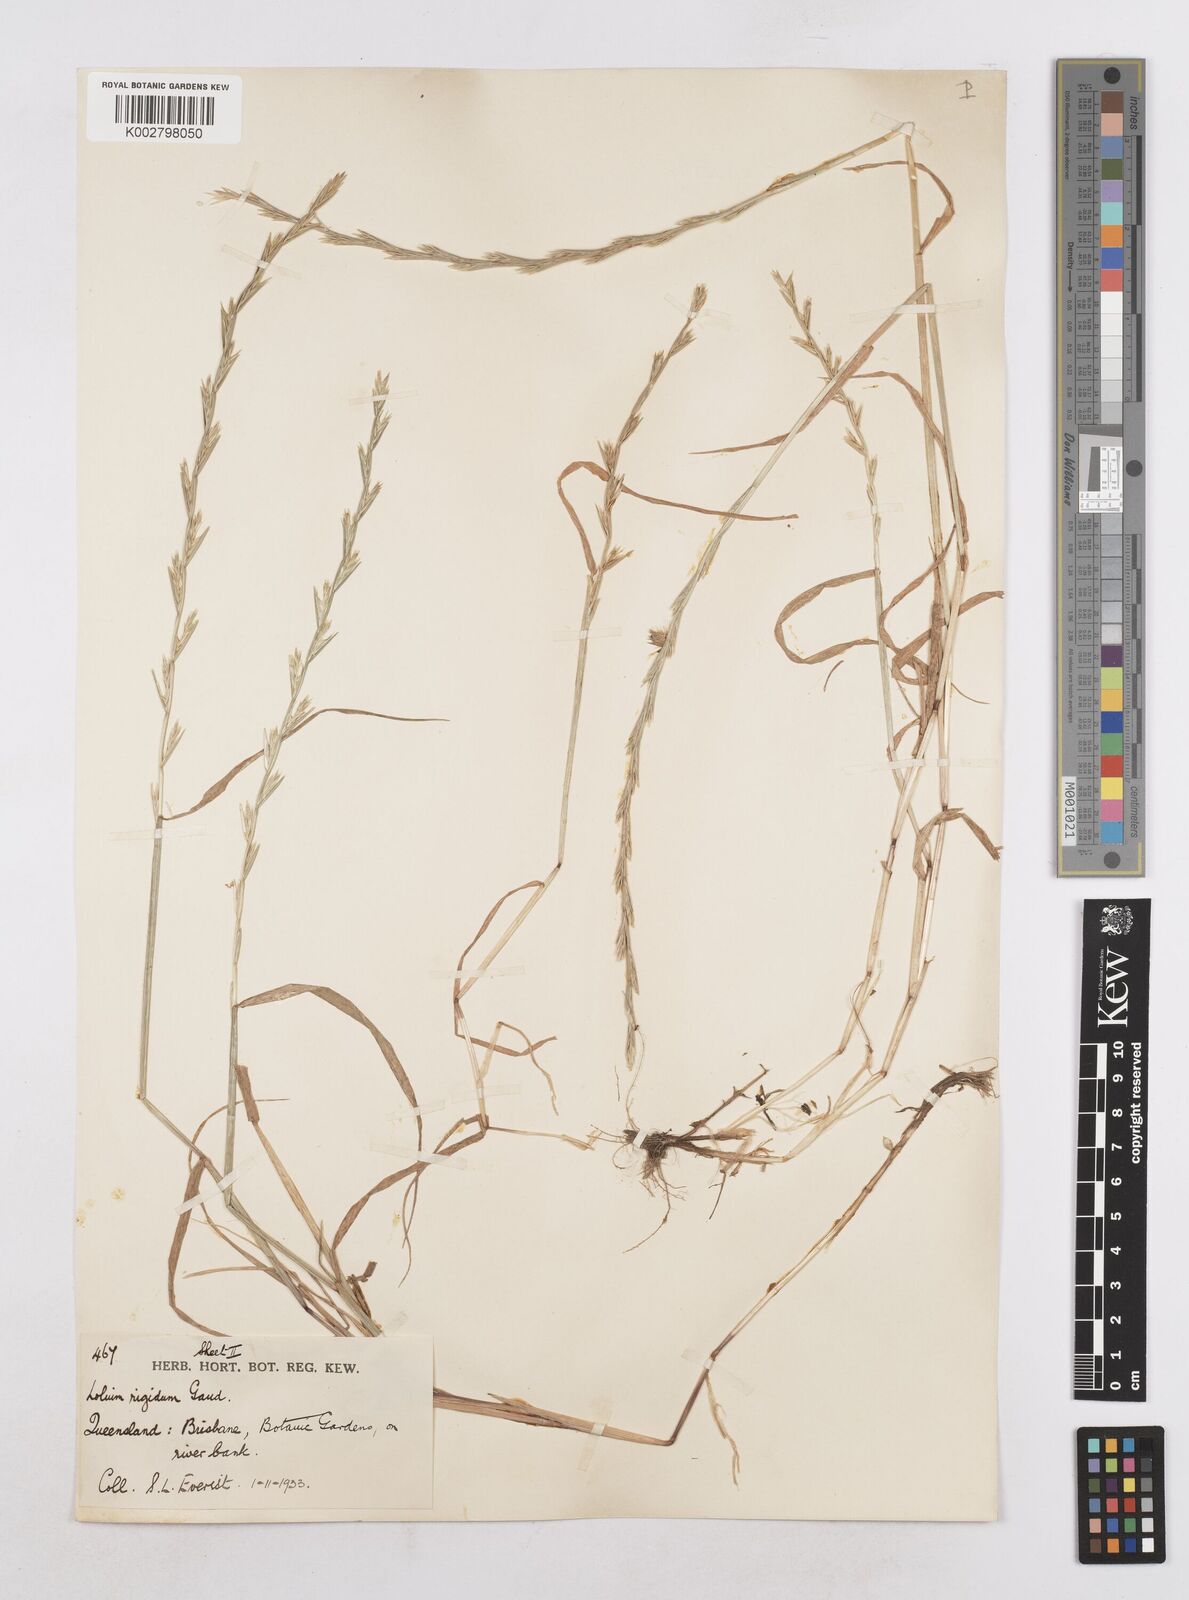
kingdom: Plantae
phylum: Tracheophyta
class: Liliopsida
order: Poales
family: Poaceae
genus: Lolium
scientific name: Lolium
